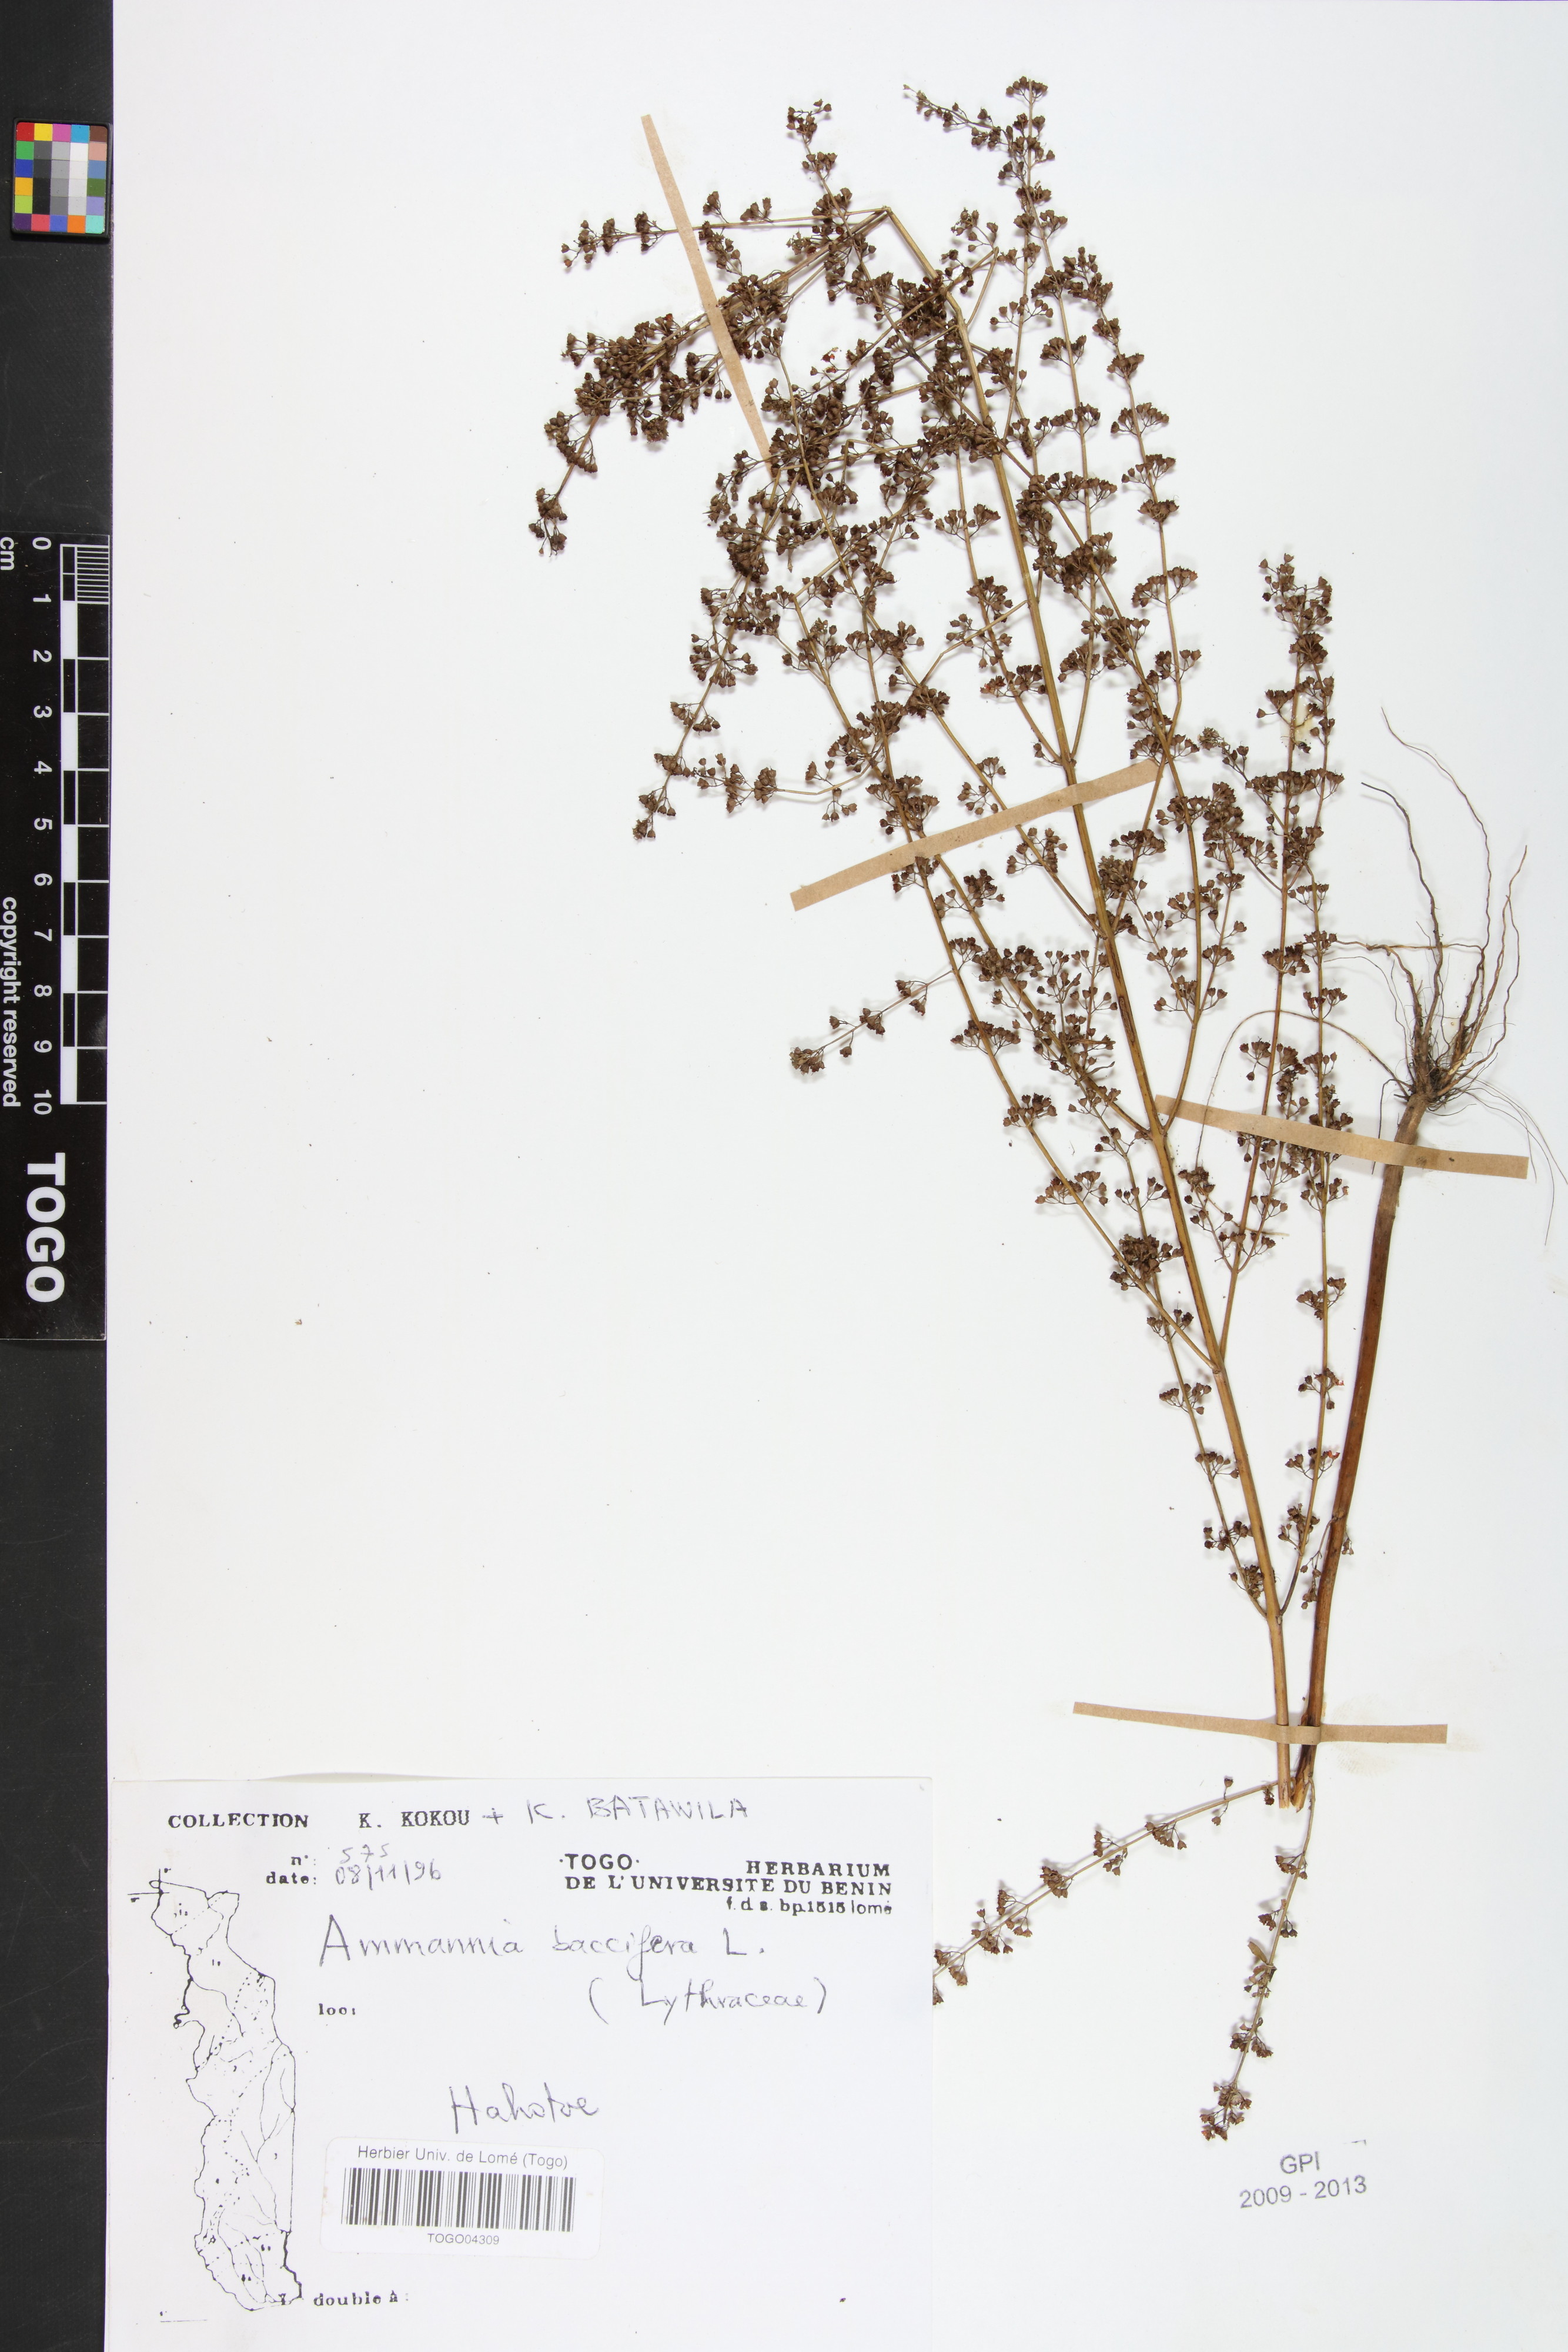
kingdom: Plantae
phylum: Tracheophyta
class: Magnoliopsida
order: Myrtales
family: Lythraceae
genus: Ammannia
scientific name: Ammannia baccifera
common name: Blistering ammania
